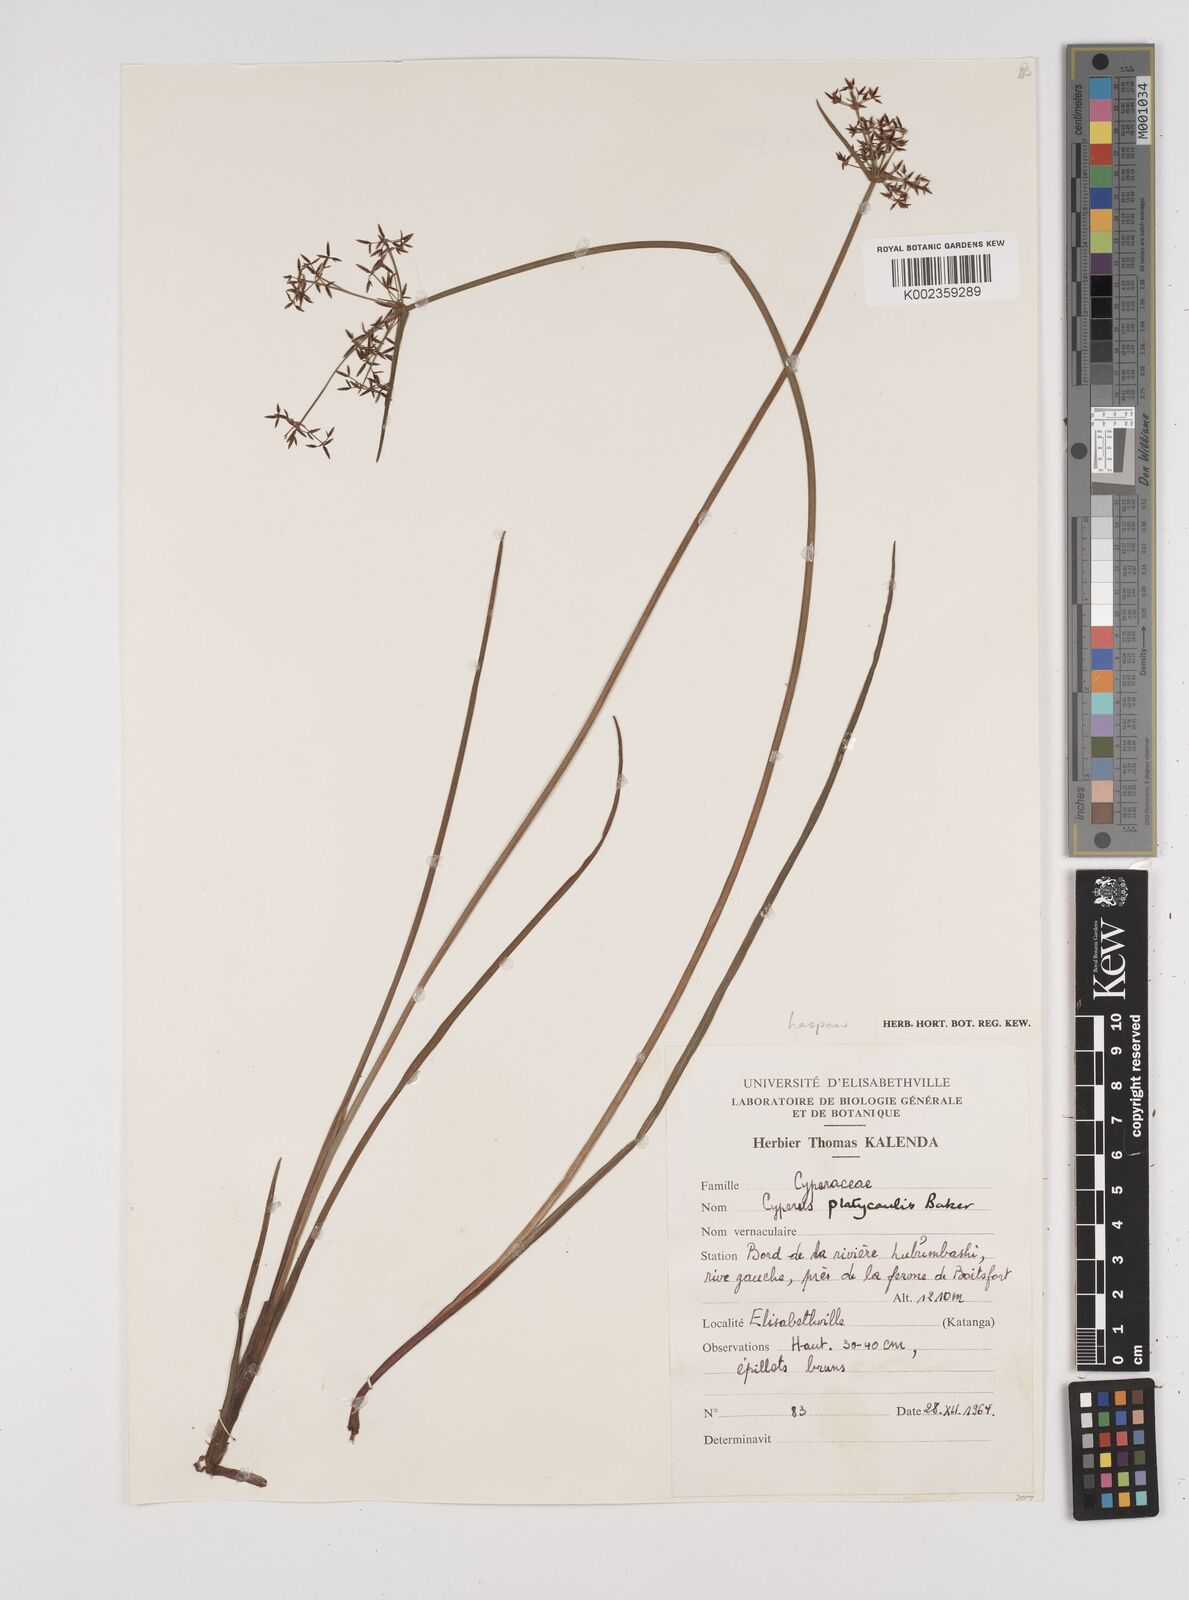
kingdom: Plantae
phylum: Tracheophyta
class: Liliopsida
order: Poales
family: Cyperaceae
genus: Cyperus
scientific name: Cyperus haspan
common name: Haspan flatsedge
